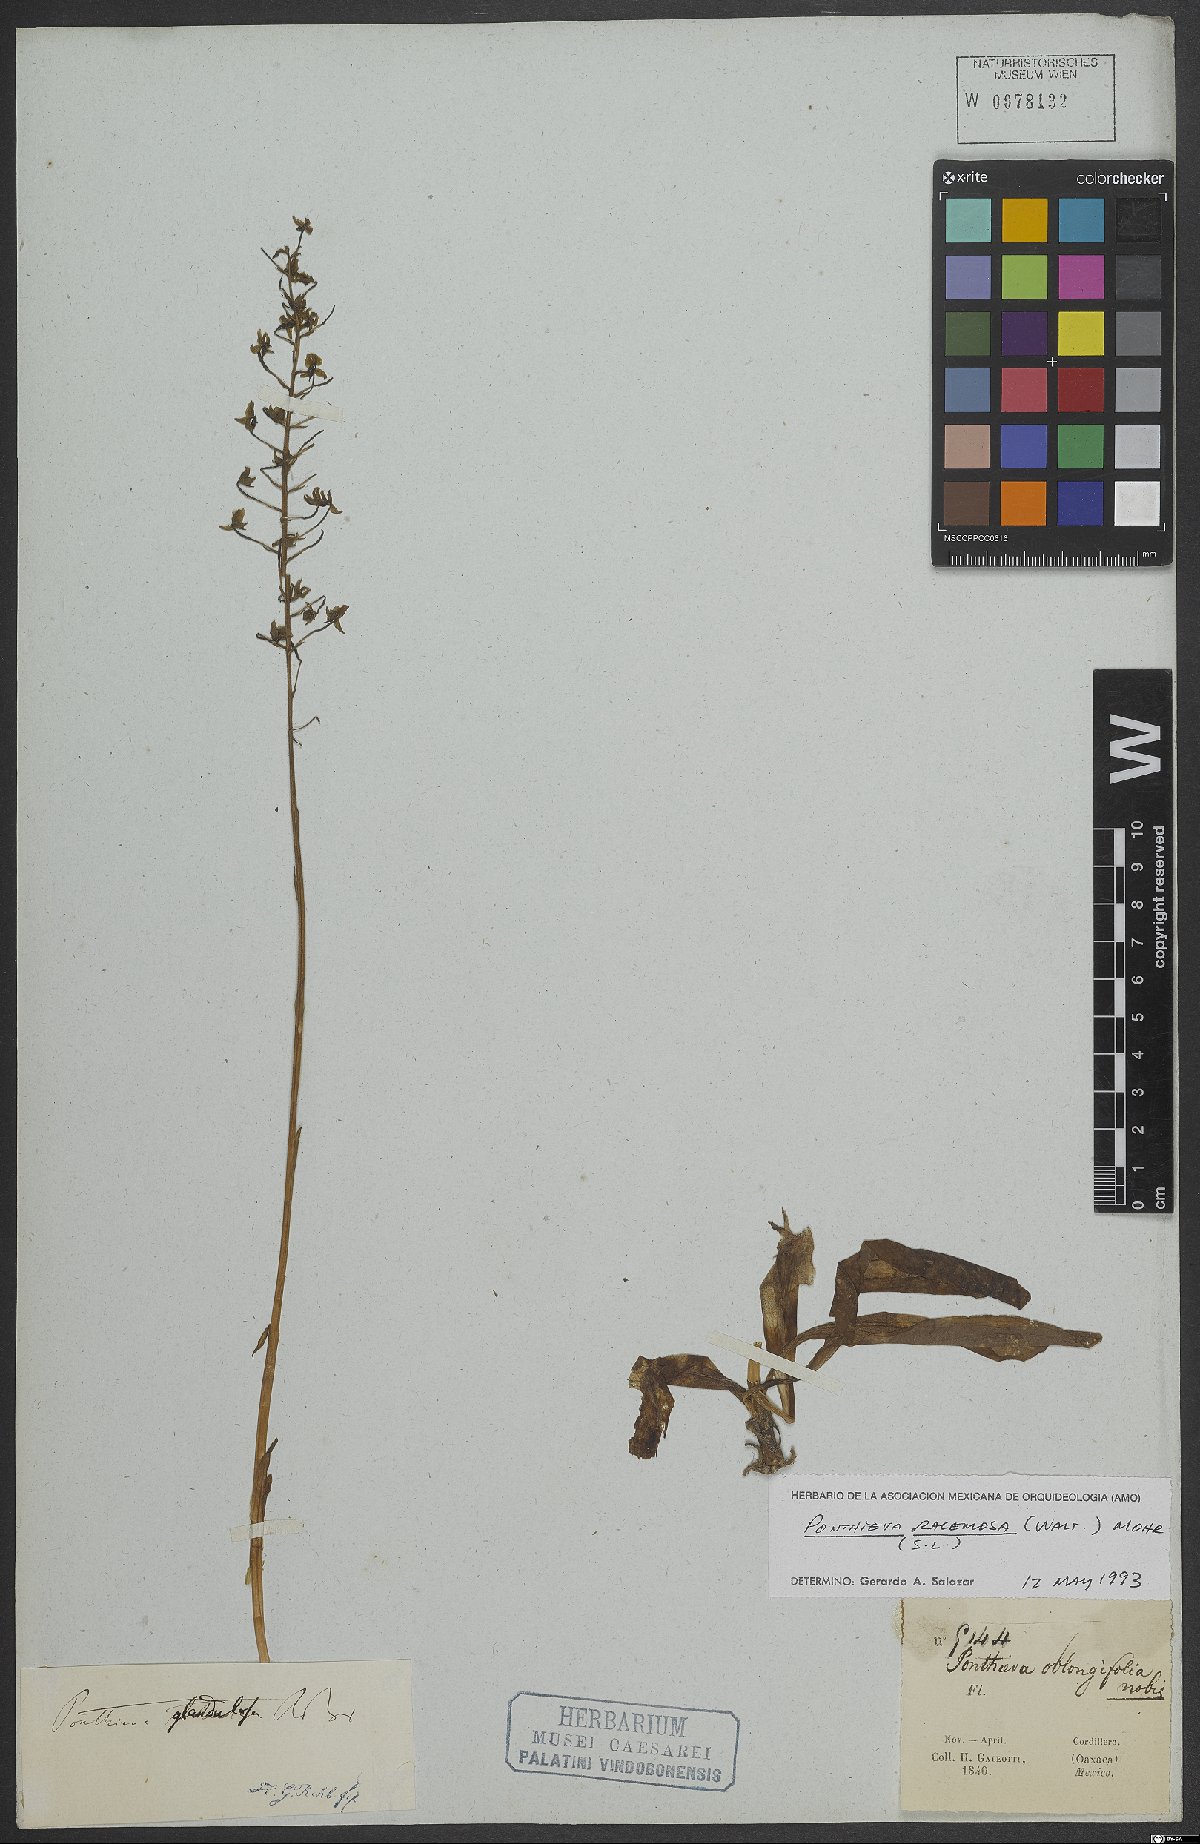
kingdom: Plantae
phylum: Tracheophyta
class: Liliopsida
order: Asparagales
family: Orchidaceae
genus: Ponthieva
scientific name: Ponthieva racemosa
